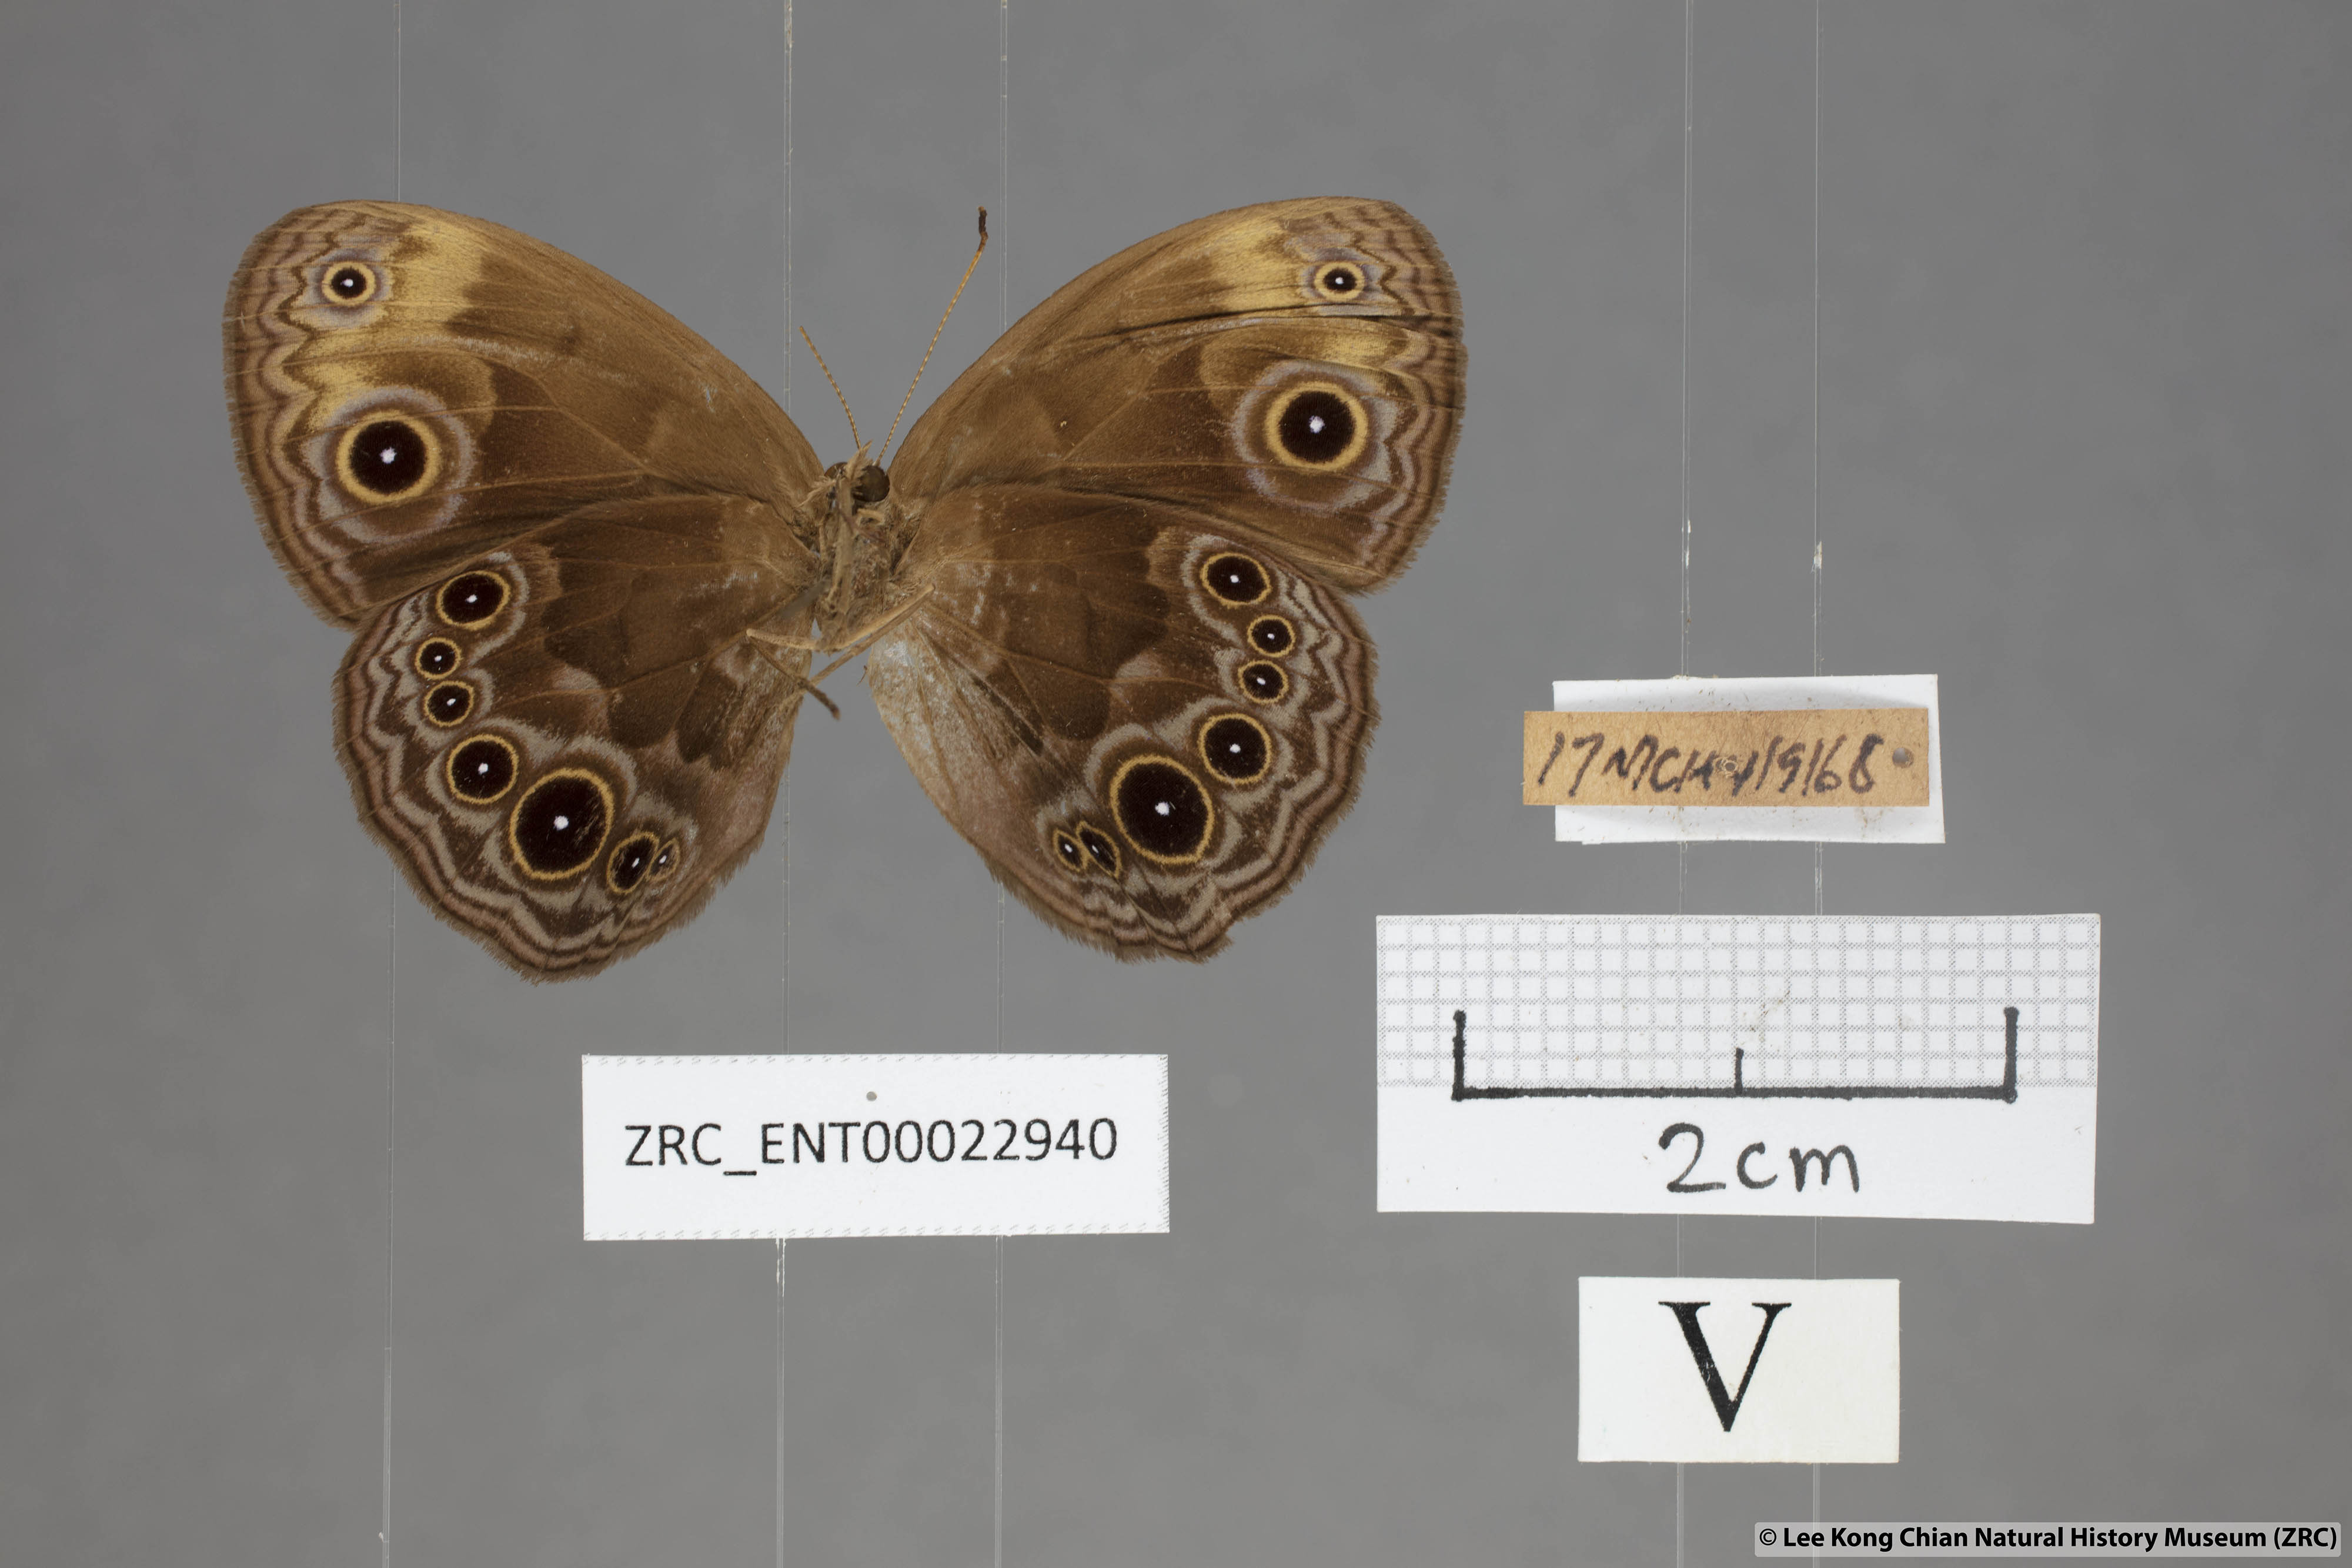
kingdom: Animalia
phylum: Arthropoda
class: Insecta
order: Lepidoptera
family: Nymphalidae
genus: Mycalesis
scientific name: Mycalesis maianeas
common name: Bandless bushbrown
